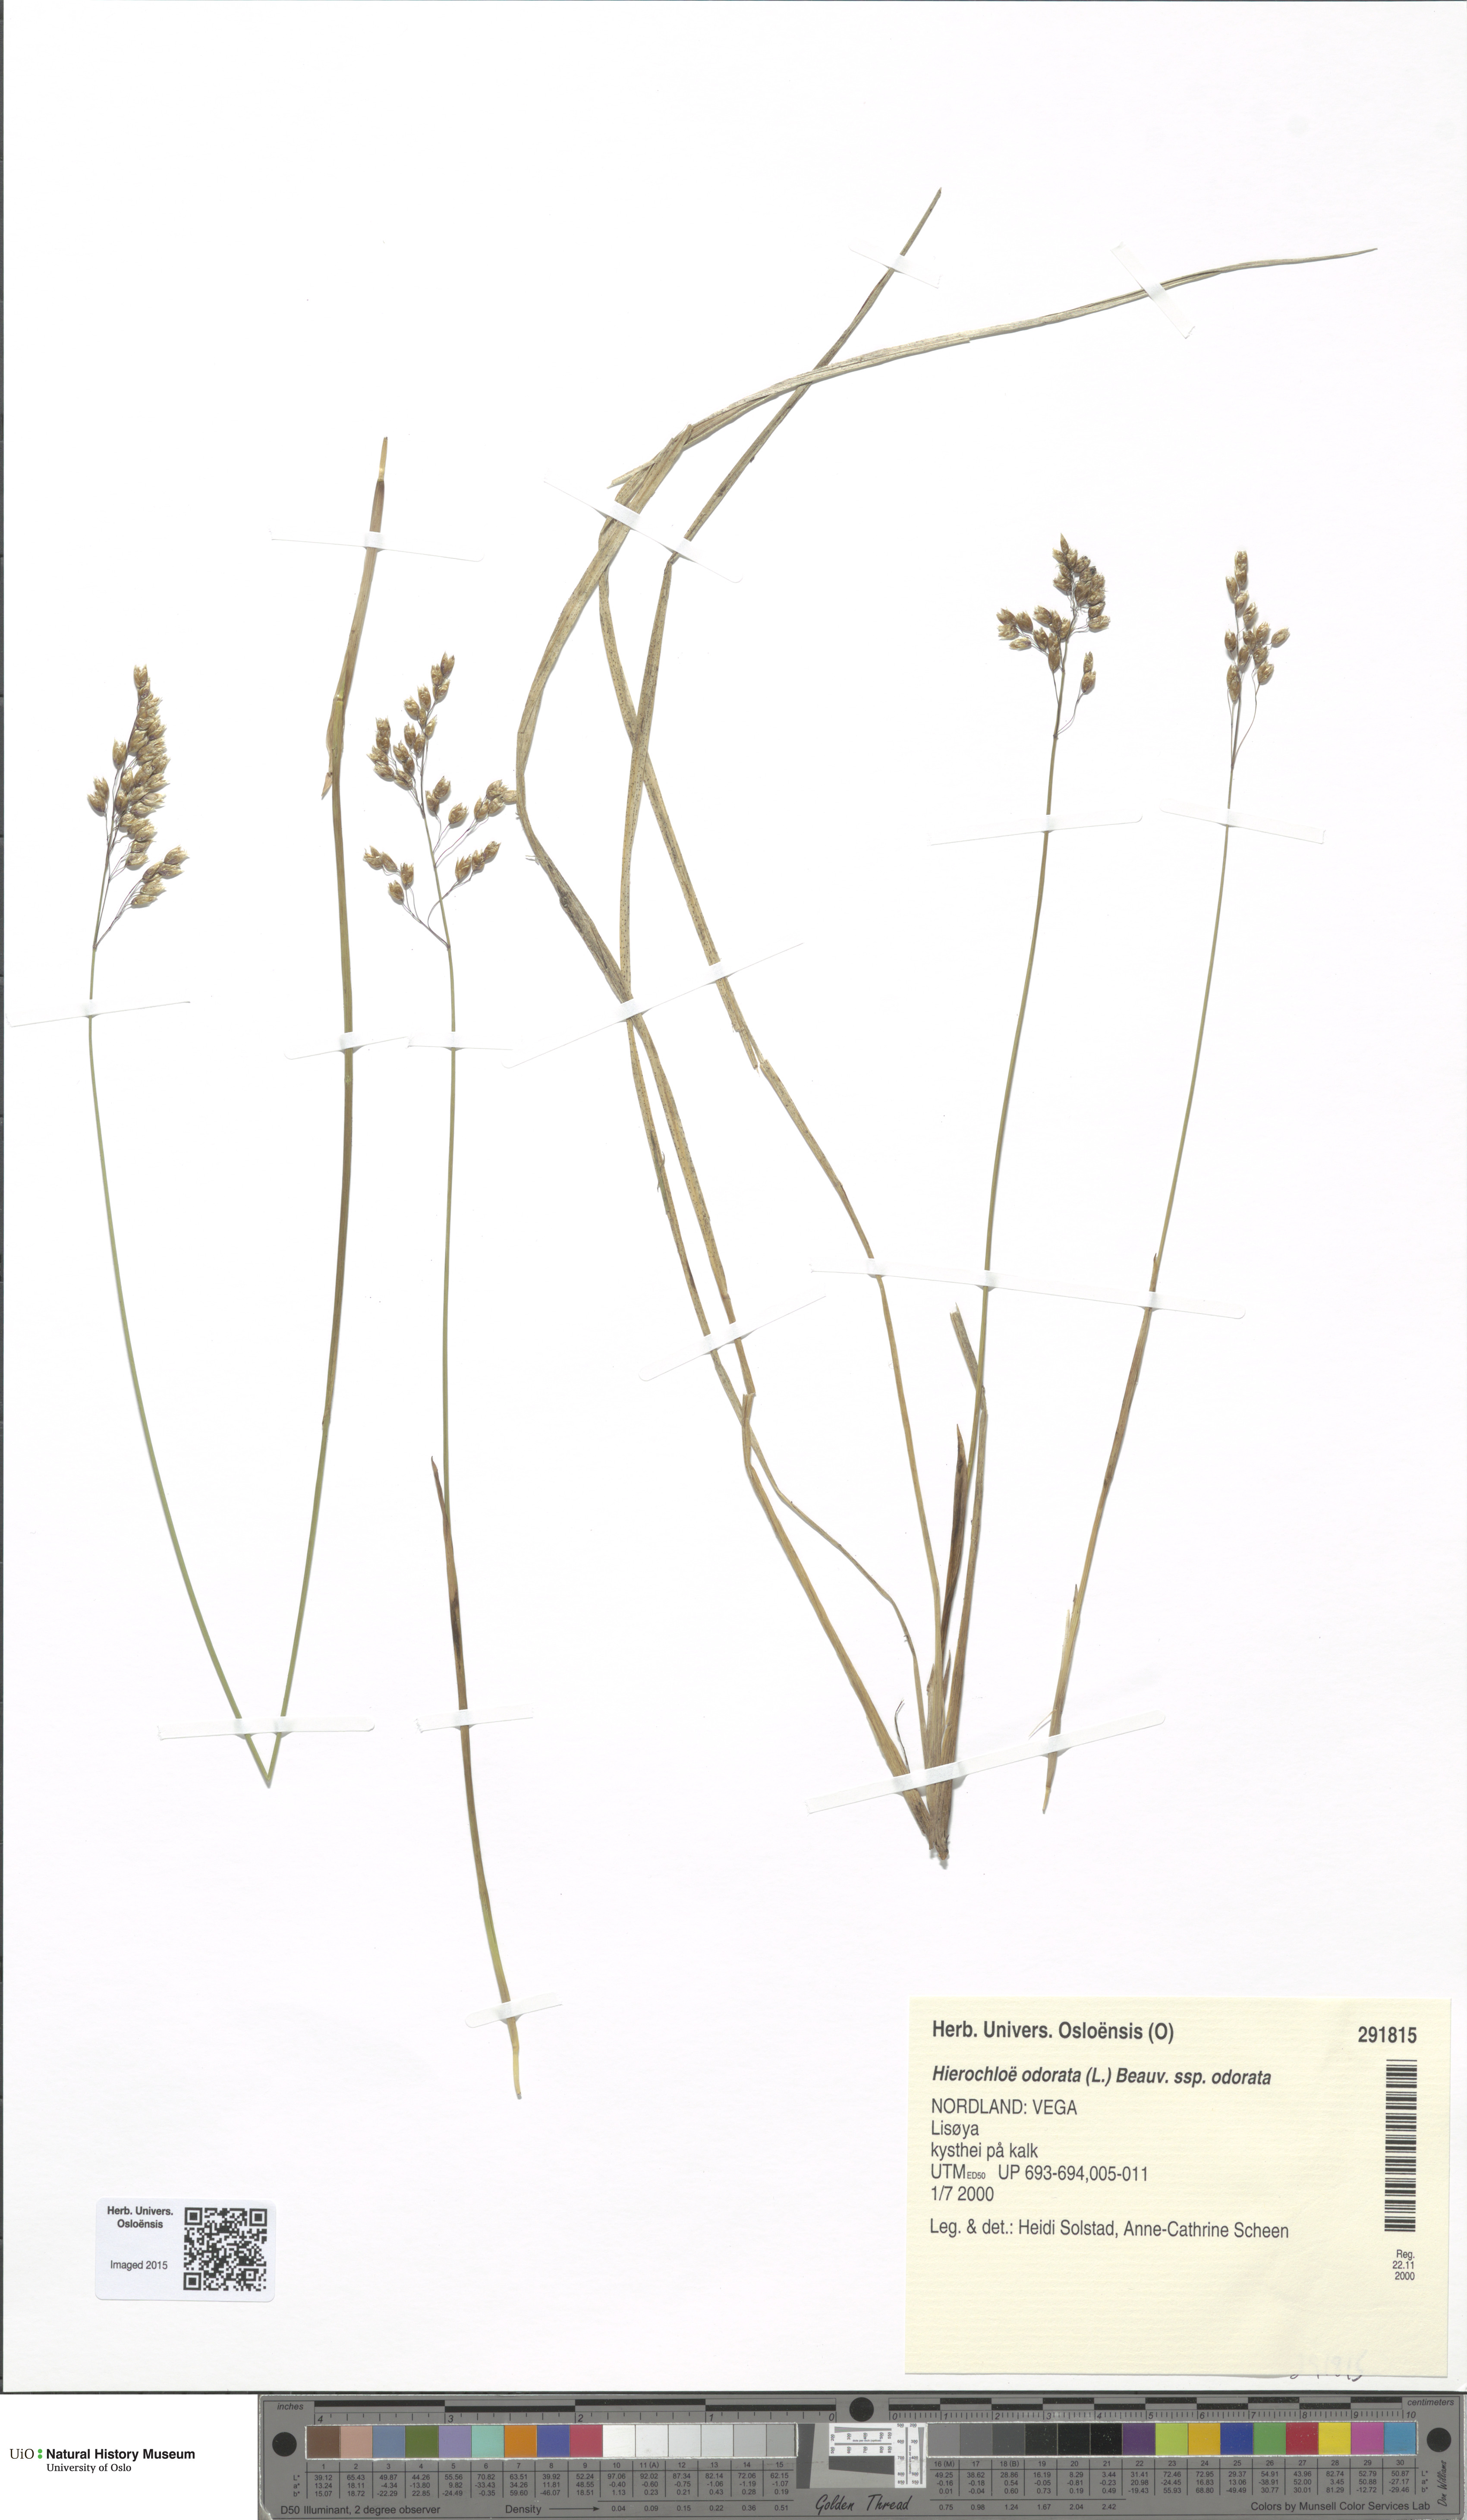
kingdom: Plantae
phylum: Tracheophyta
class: Liliopsida
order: Poales
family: Poaceae
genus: Anthoxanthum
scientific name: Anthoxanthum nitens
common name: Holy grass
